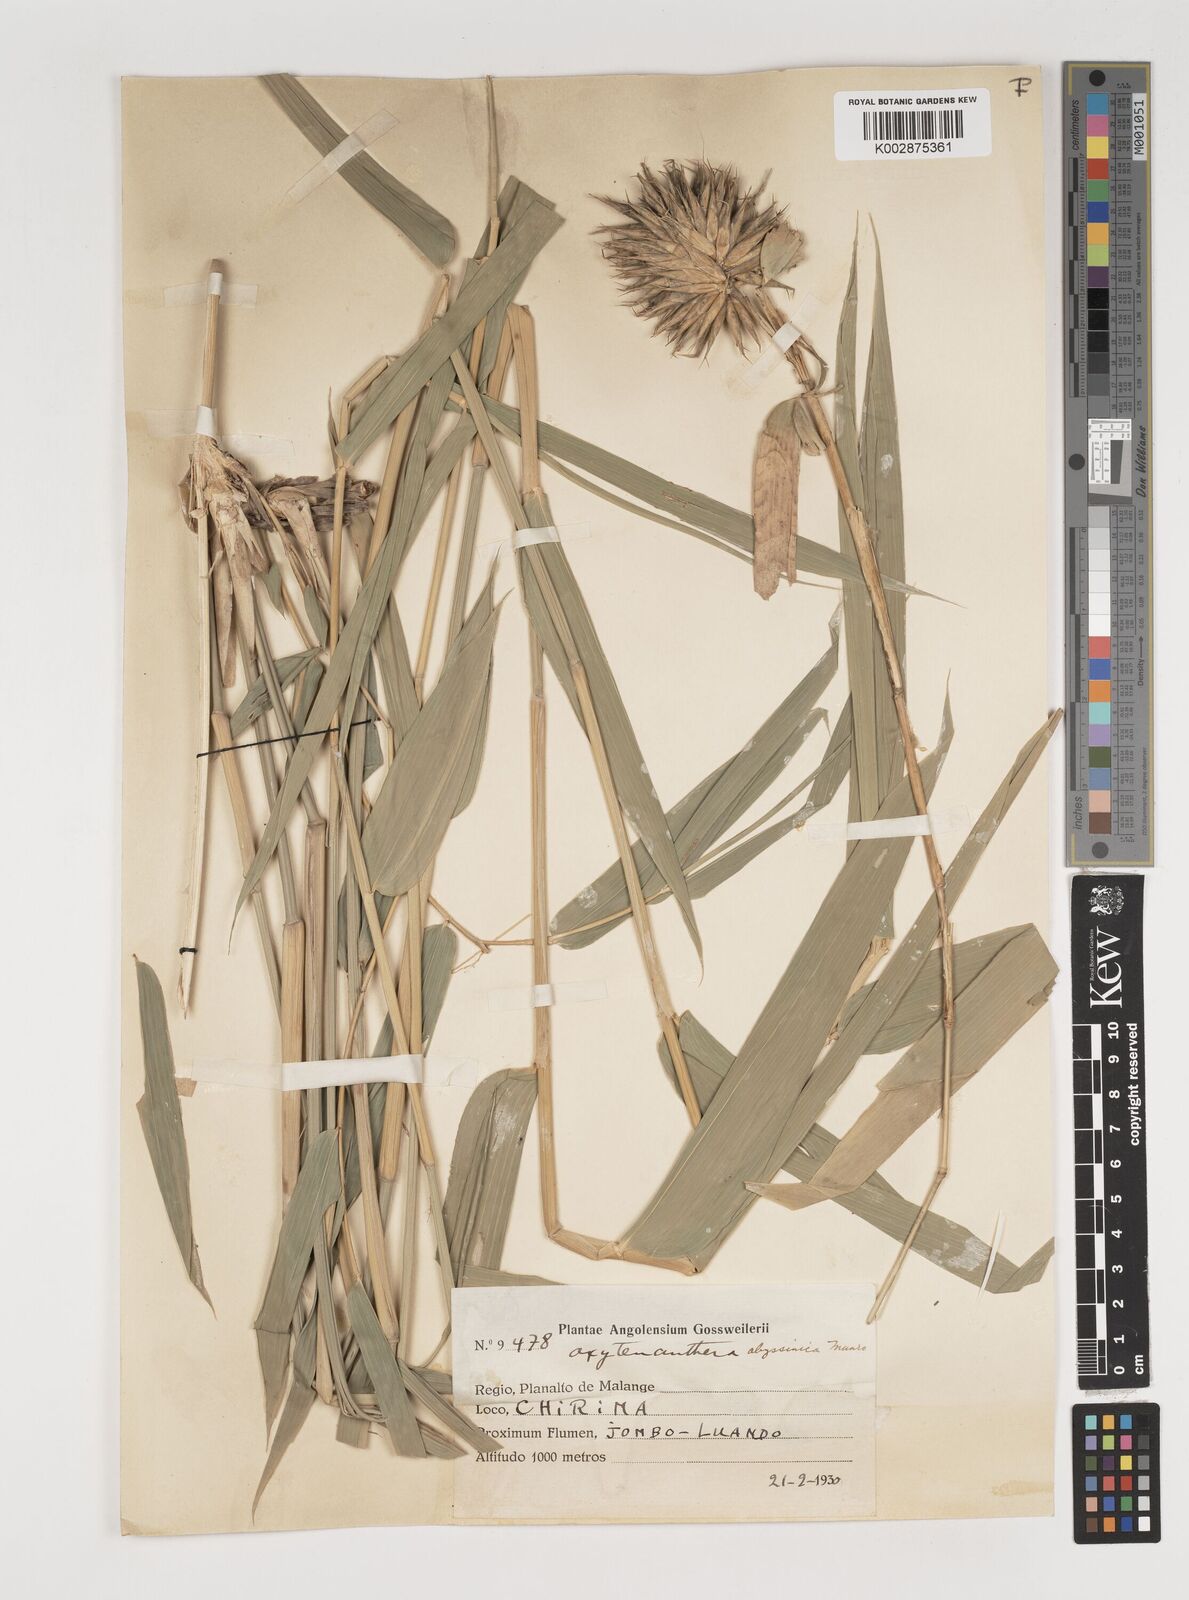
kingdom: Plantae
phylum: Tracheophyta
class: Liliopsida
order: Poales
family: Poaceae
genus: Oxytenanthera
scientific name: Oxytenanthera abyssinica
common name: Wine bamboo
